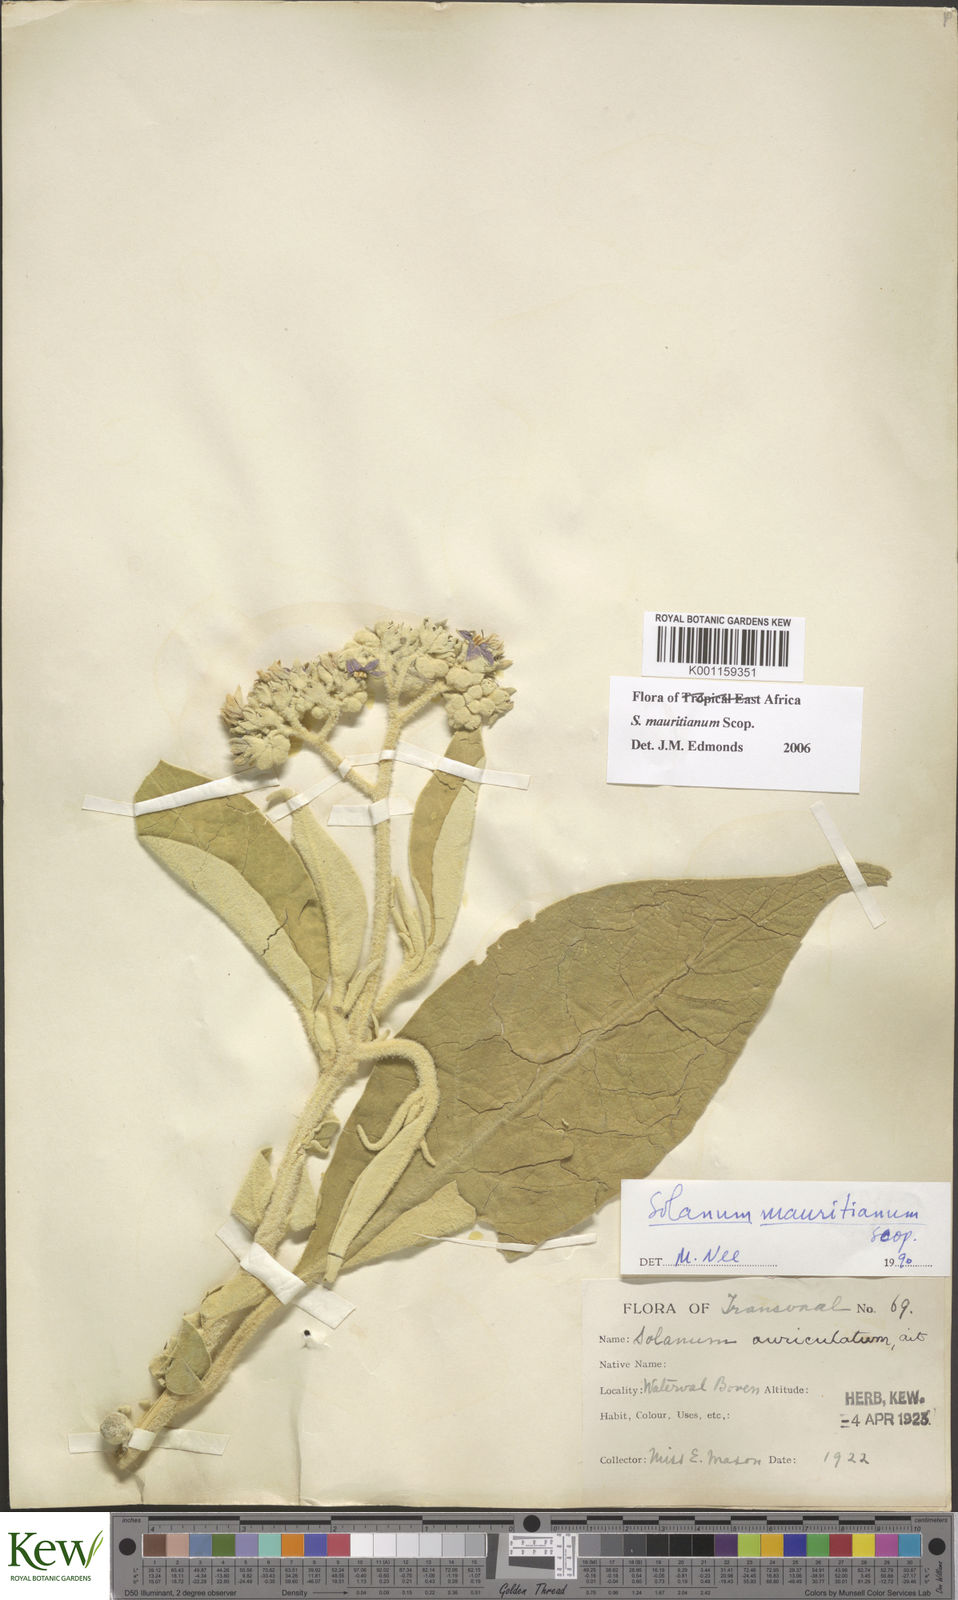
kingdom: Plantae
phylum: Tracheophyta
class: Magnoliopsida
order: Solanales
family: Solanaceae
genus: Solanum
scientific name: Solanum mauritianum
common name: Earleaf nightshade
